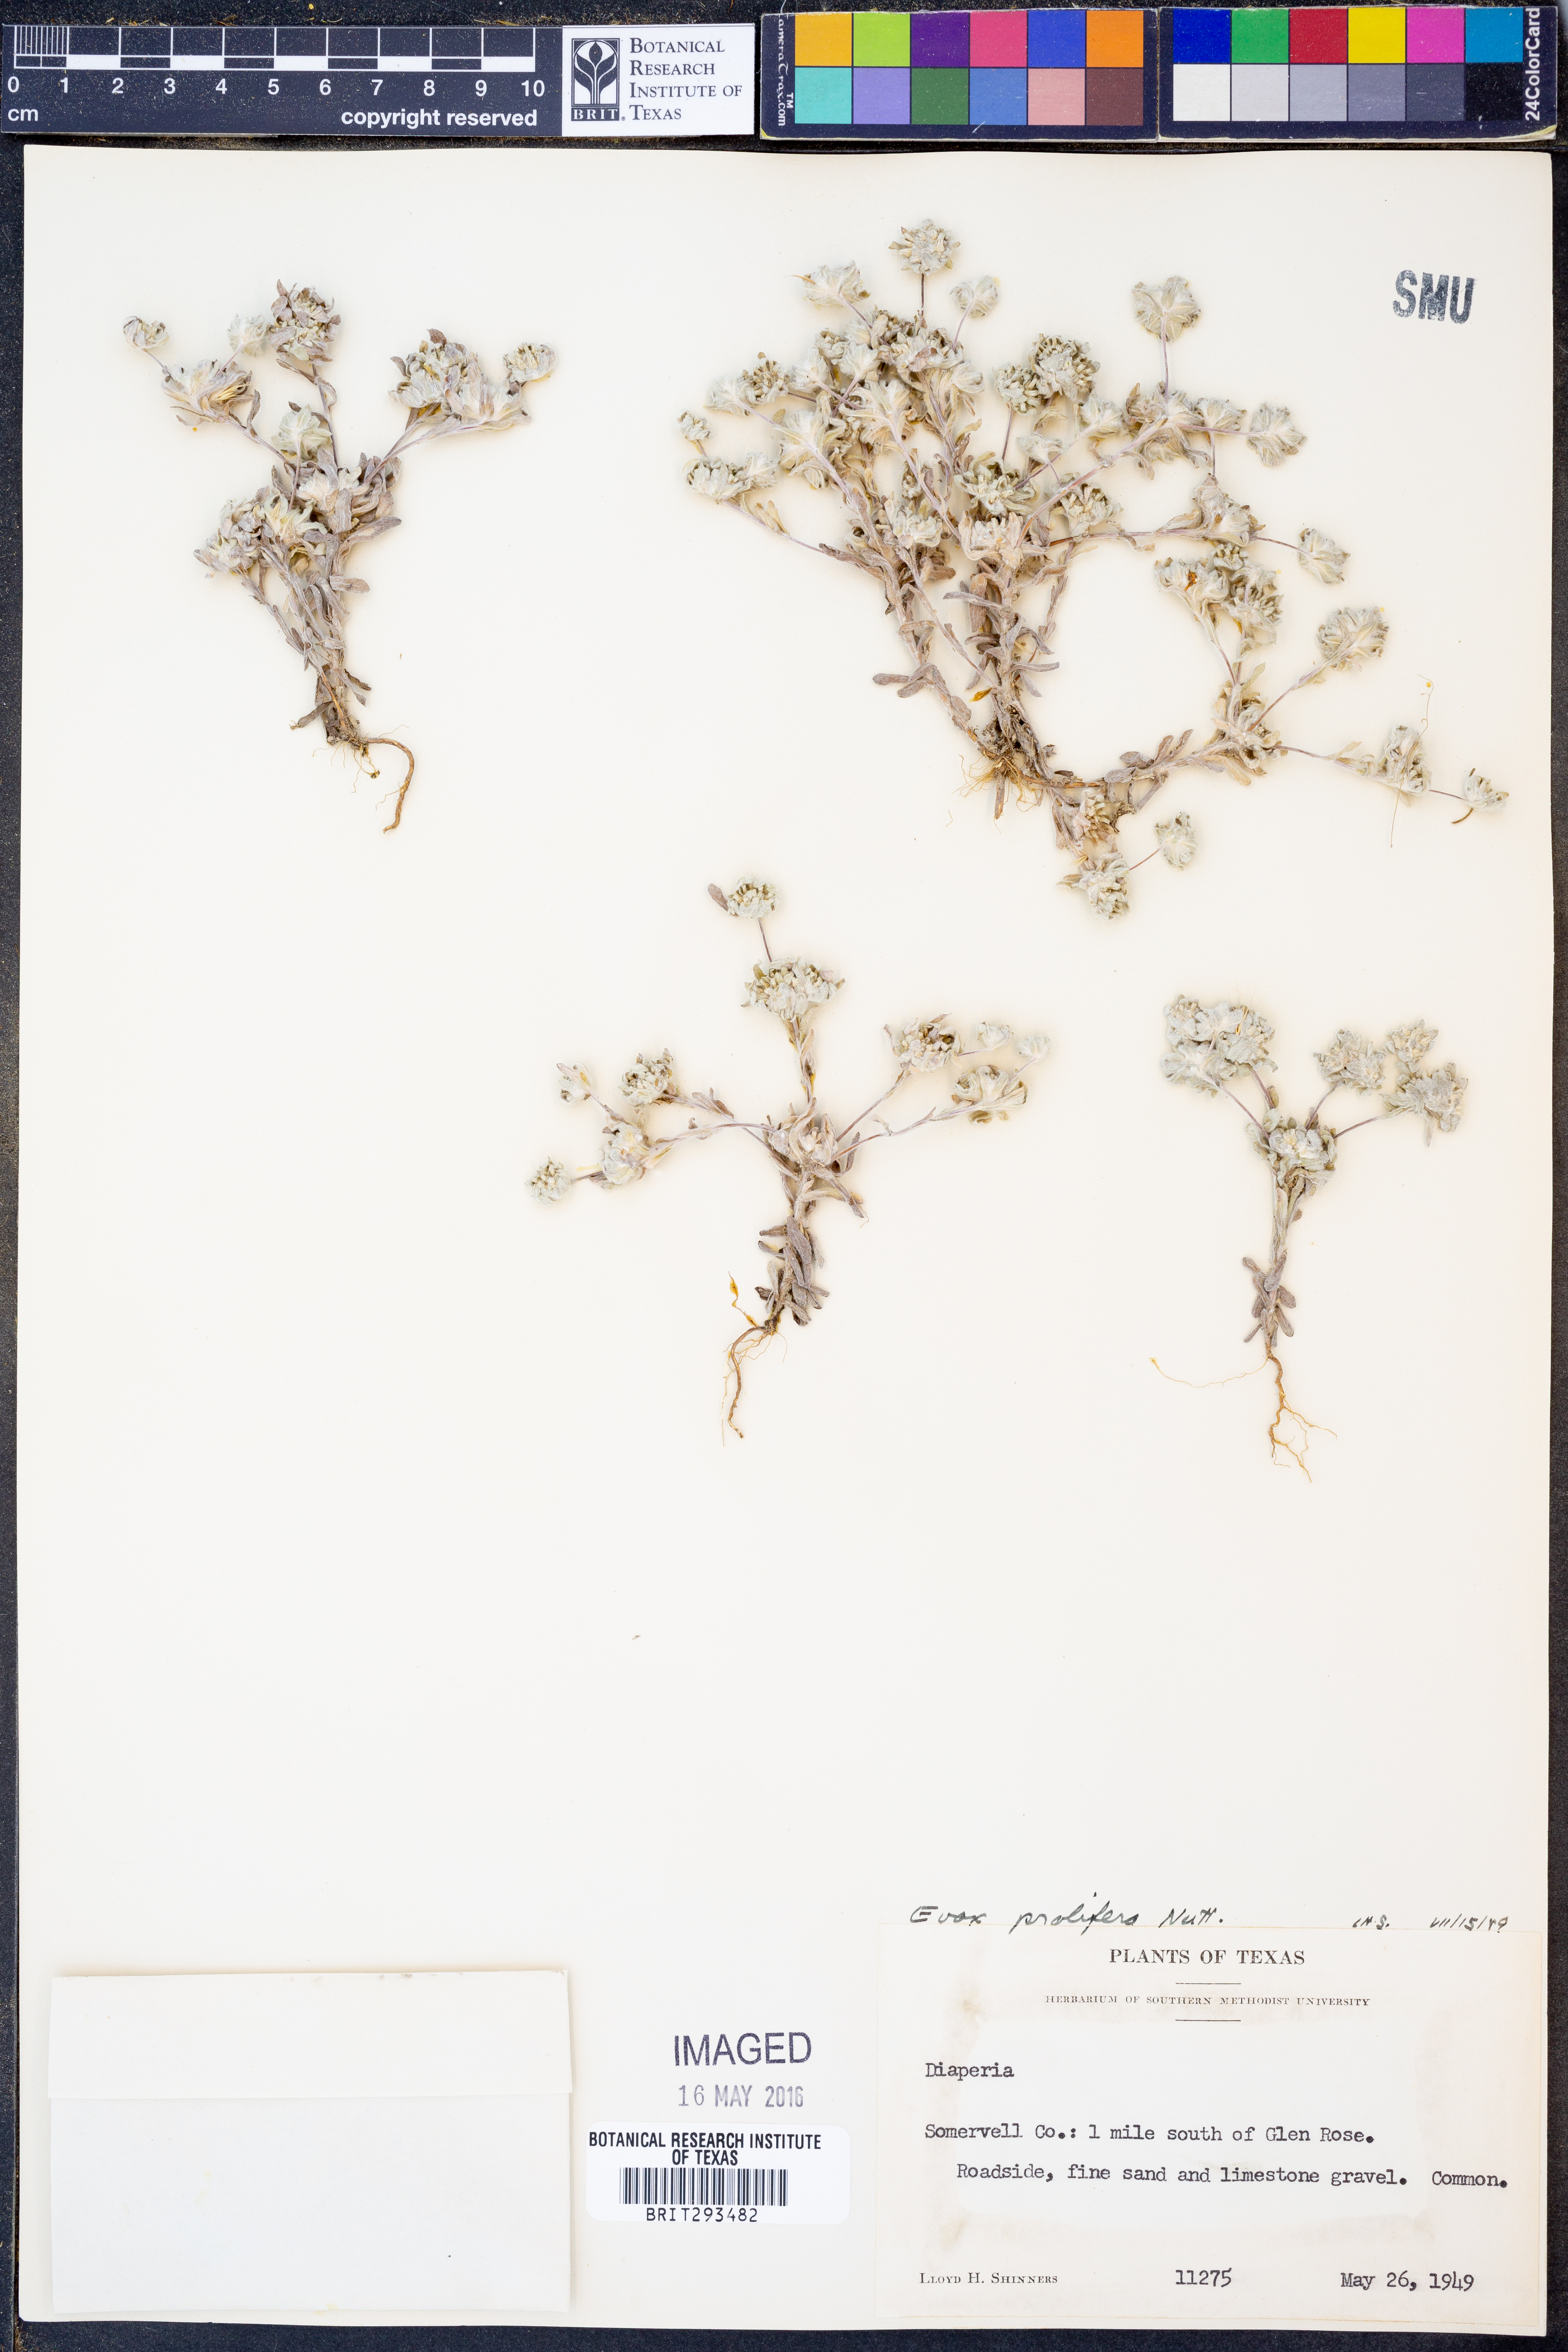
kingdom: Plantae
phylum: Tracheophyta
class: Magnoliopsida
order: Asterales
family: Asteraceae
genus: Diaperia
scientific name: Diaperia prolifera
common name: Big-head rabbit-tobacco
